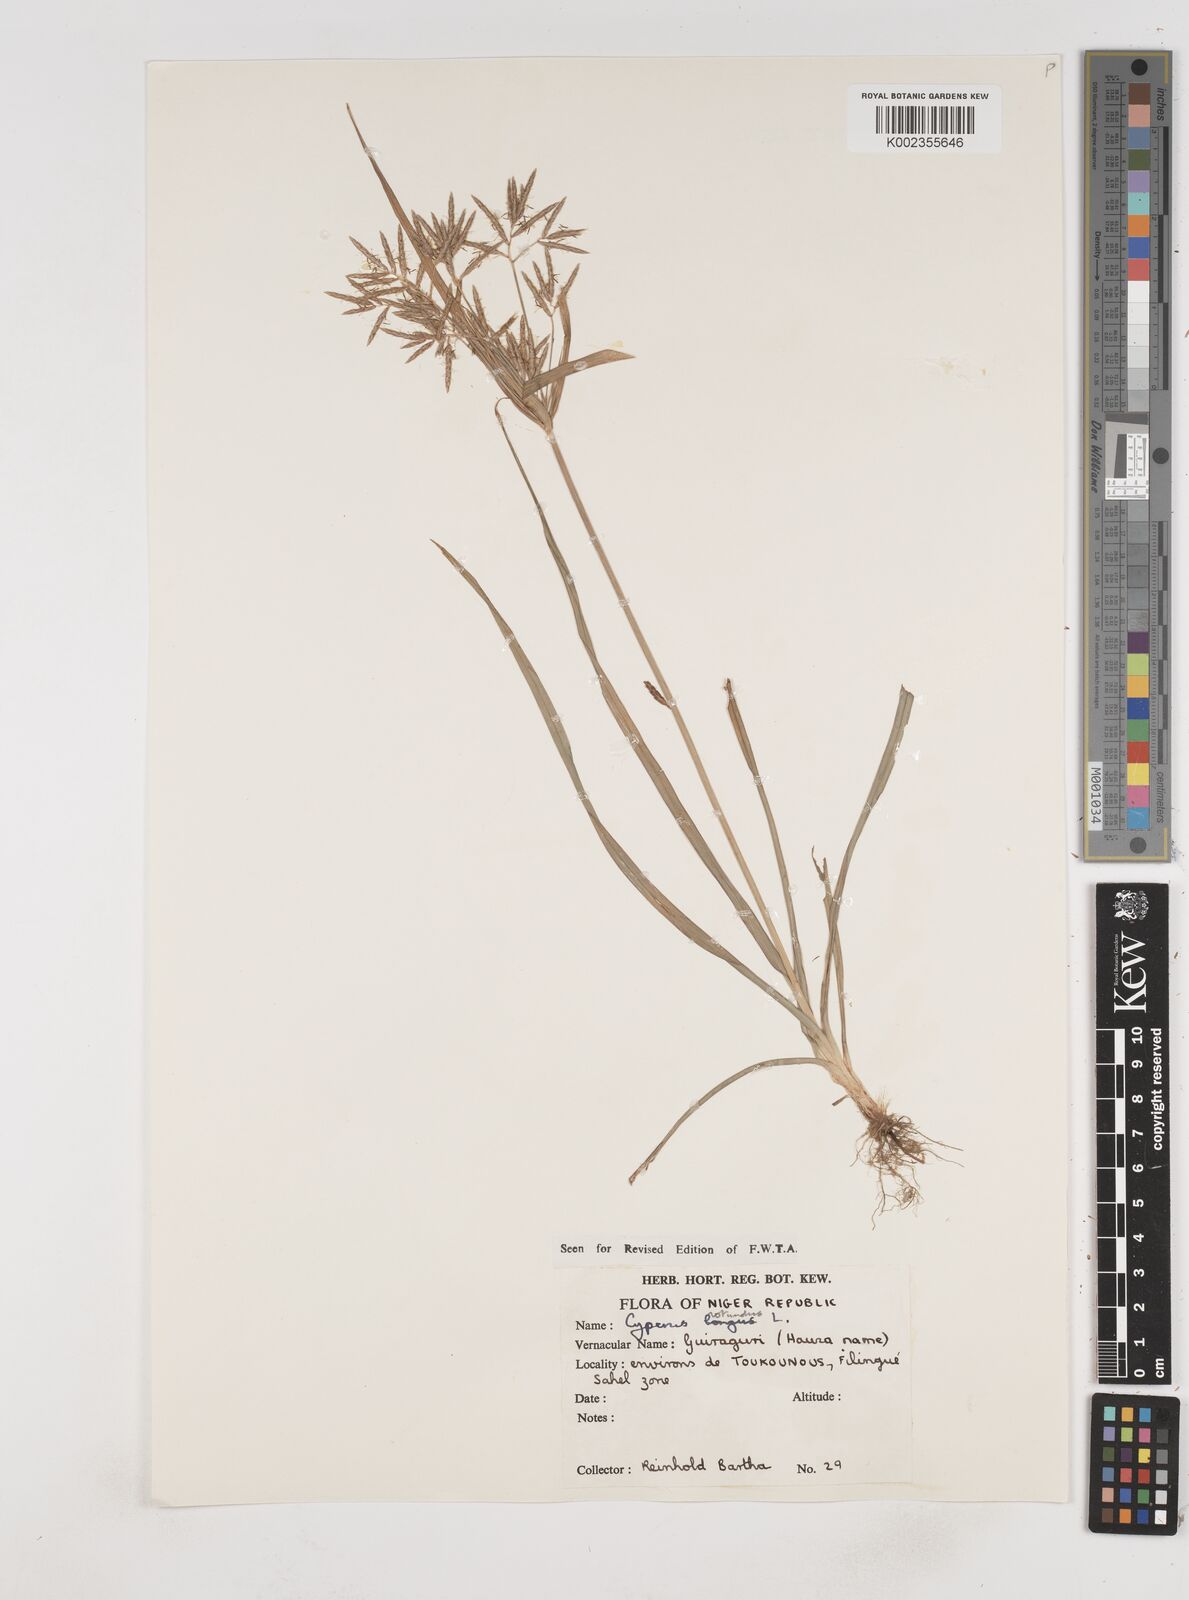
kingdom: Plantae
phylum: Tracheophyta
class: Liliopsida
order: Poales
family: Cyperaceae
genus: Cyperus
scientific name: Cyperus rotundus
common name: Nutgrass
